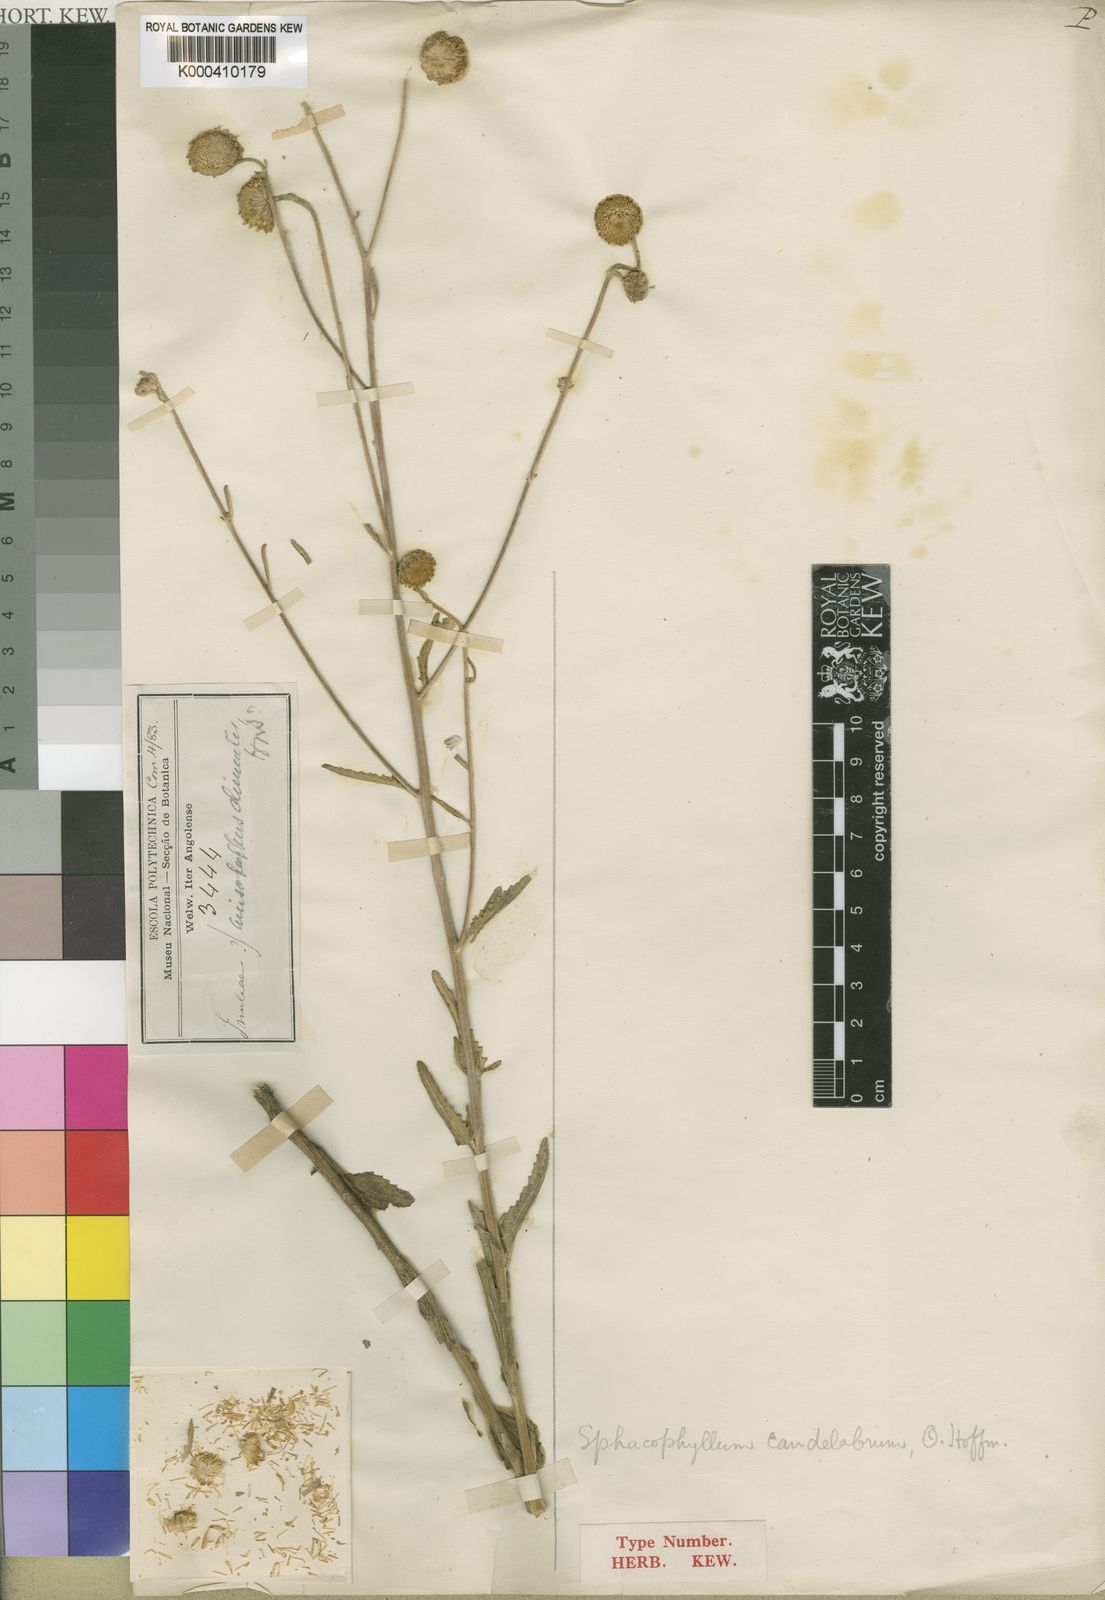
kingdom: Plantae
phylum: Tracheophyta
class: Magnoliopsida
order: Asterales
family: Asteraceae
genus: Anisopappus
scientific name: Anisopappus chinensis
